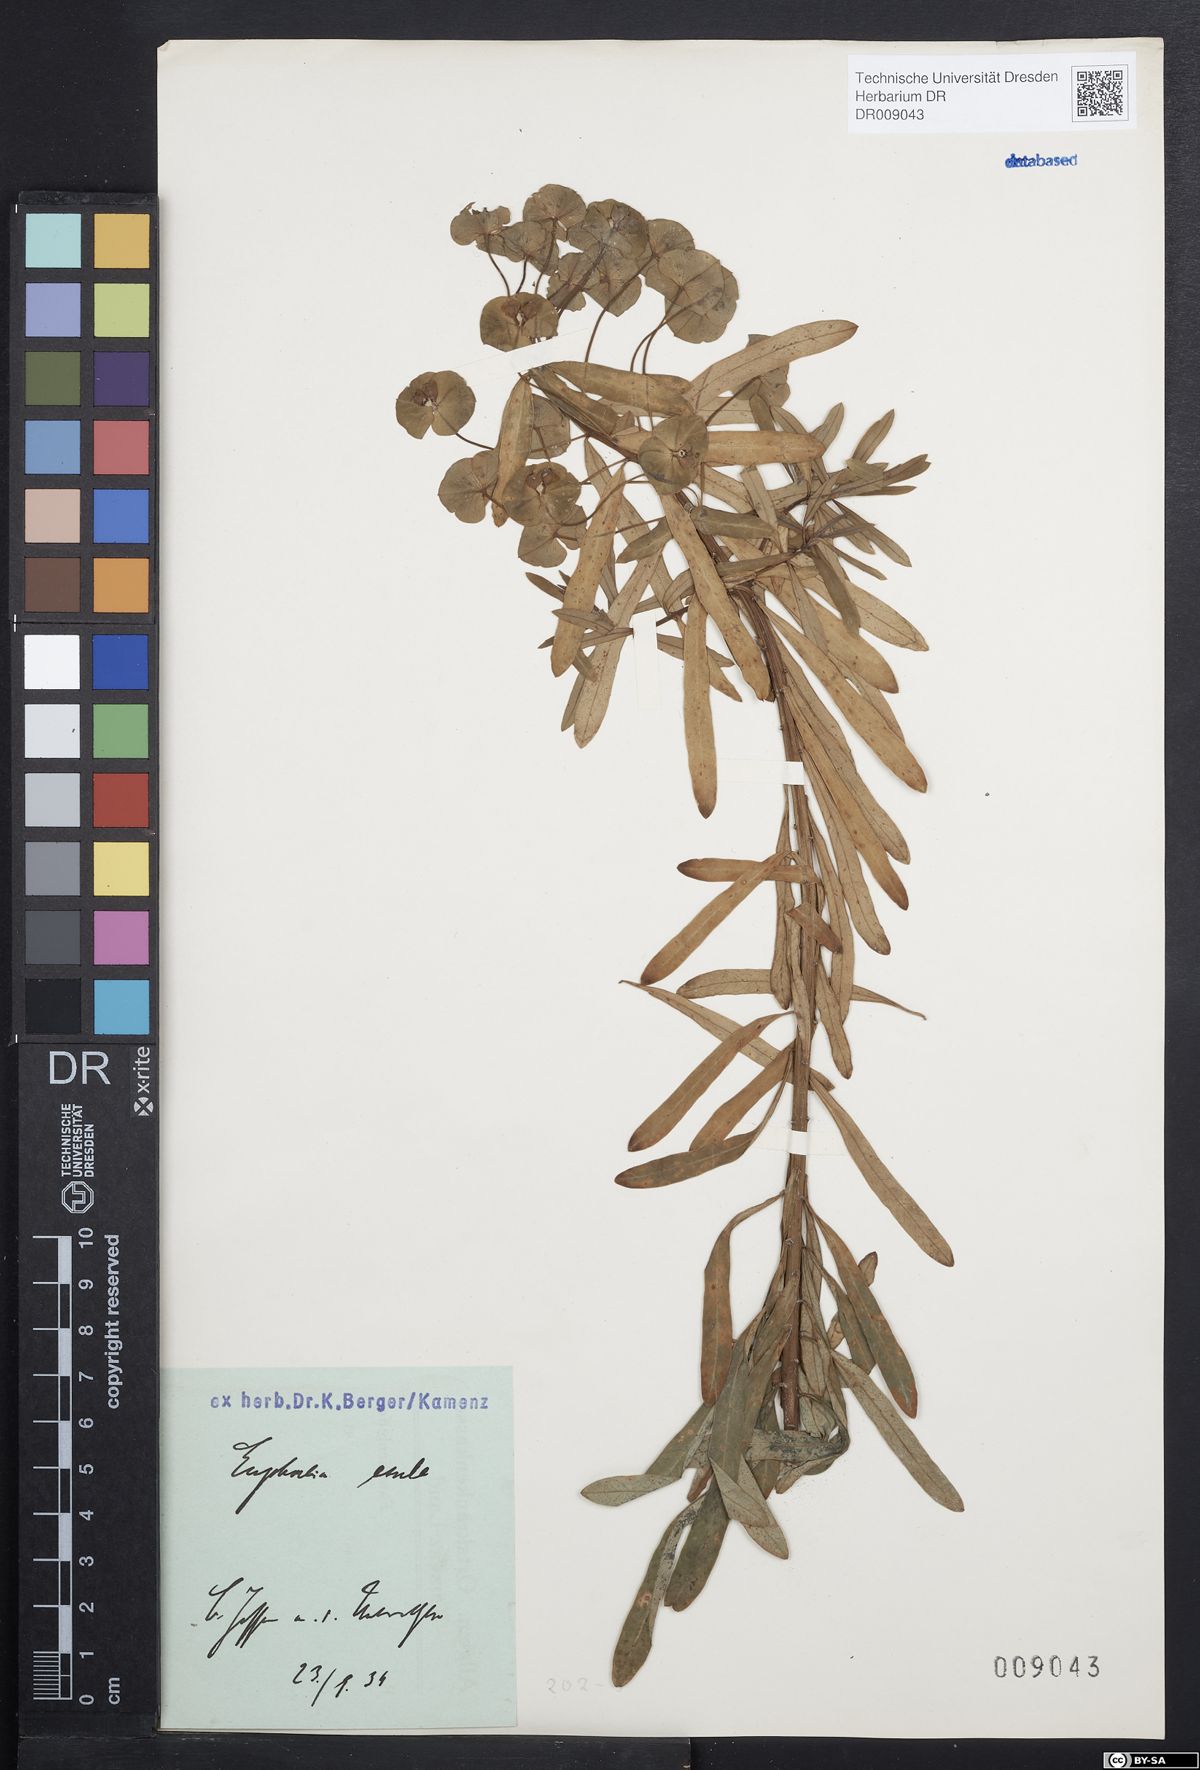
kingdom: Plantae
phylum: Tracheophyta
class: Magnoliopsida
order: Malpighiales
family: Euphorbiaceae
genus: Euphorbia
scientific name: Euphorbia esula
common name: Leafy spurge
